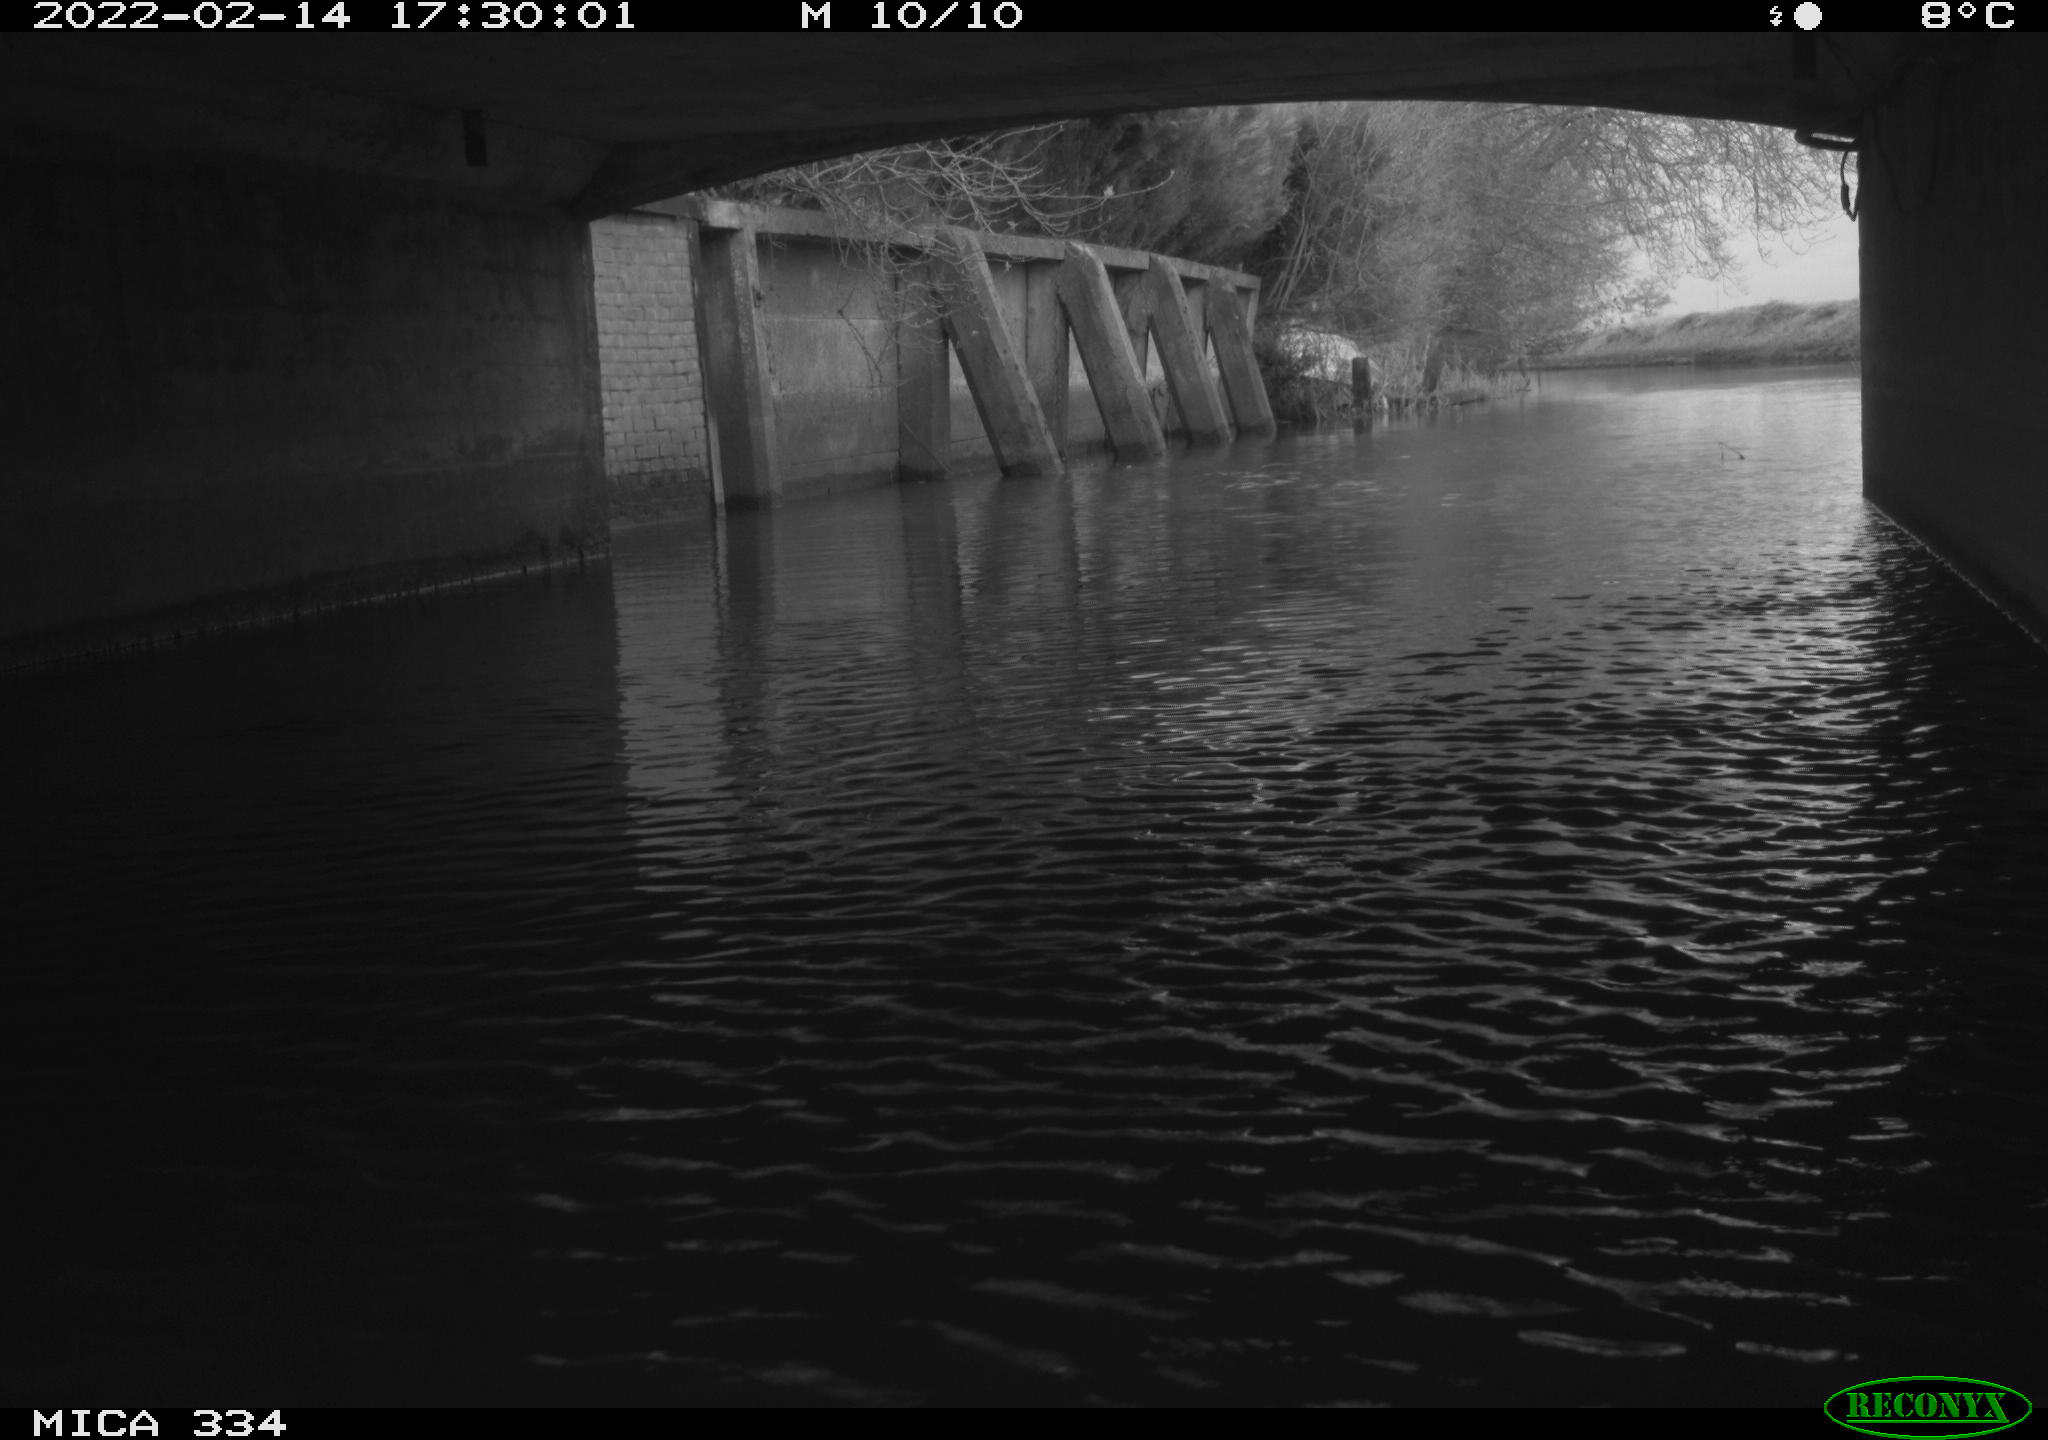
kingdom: Animalia
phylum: Chordata
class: Aves
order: Gruiformes
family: Rallidae
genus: Fulica
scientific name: Fulica atra
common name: Eurasian coot
